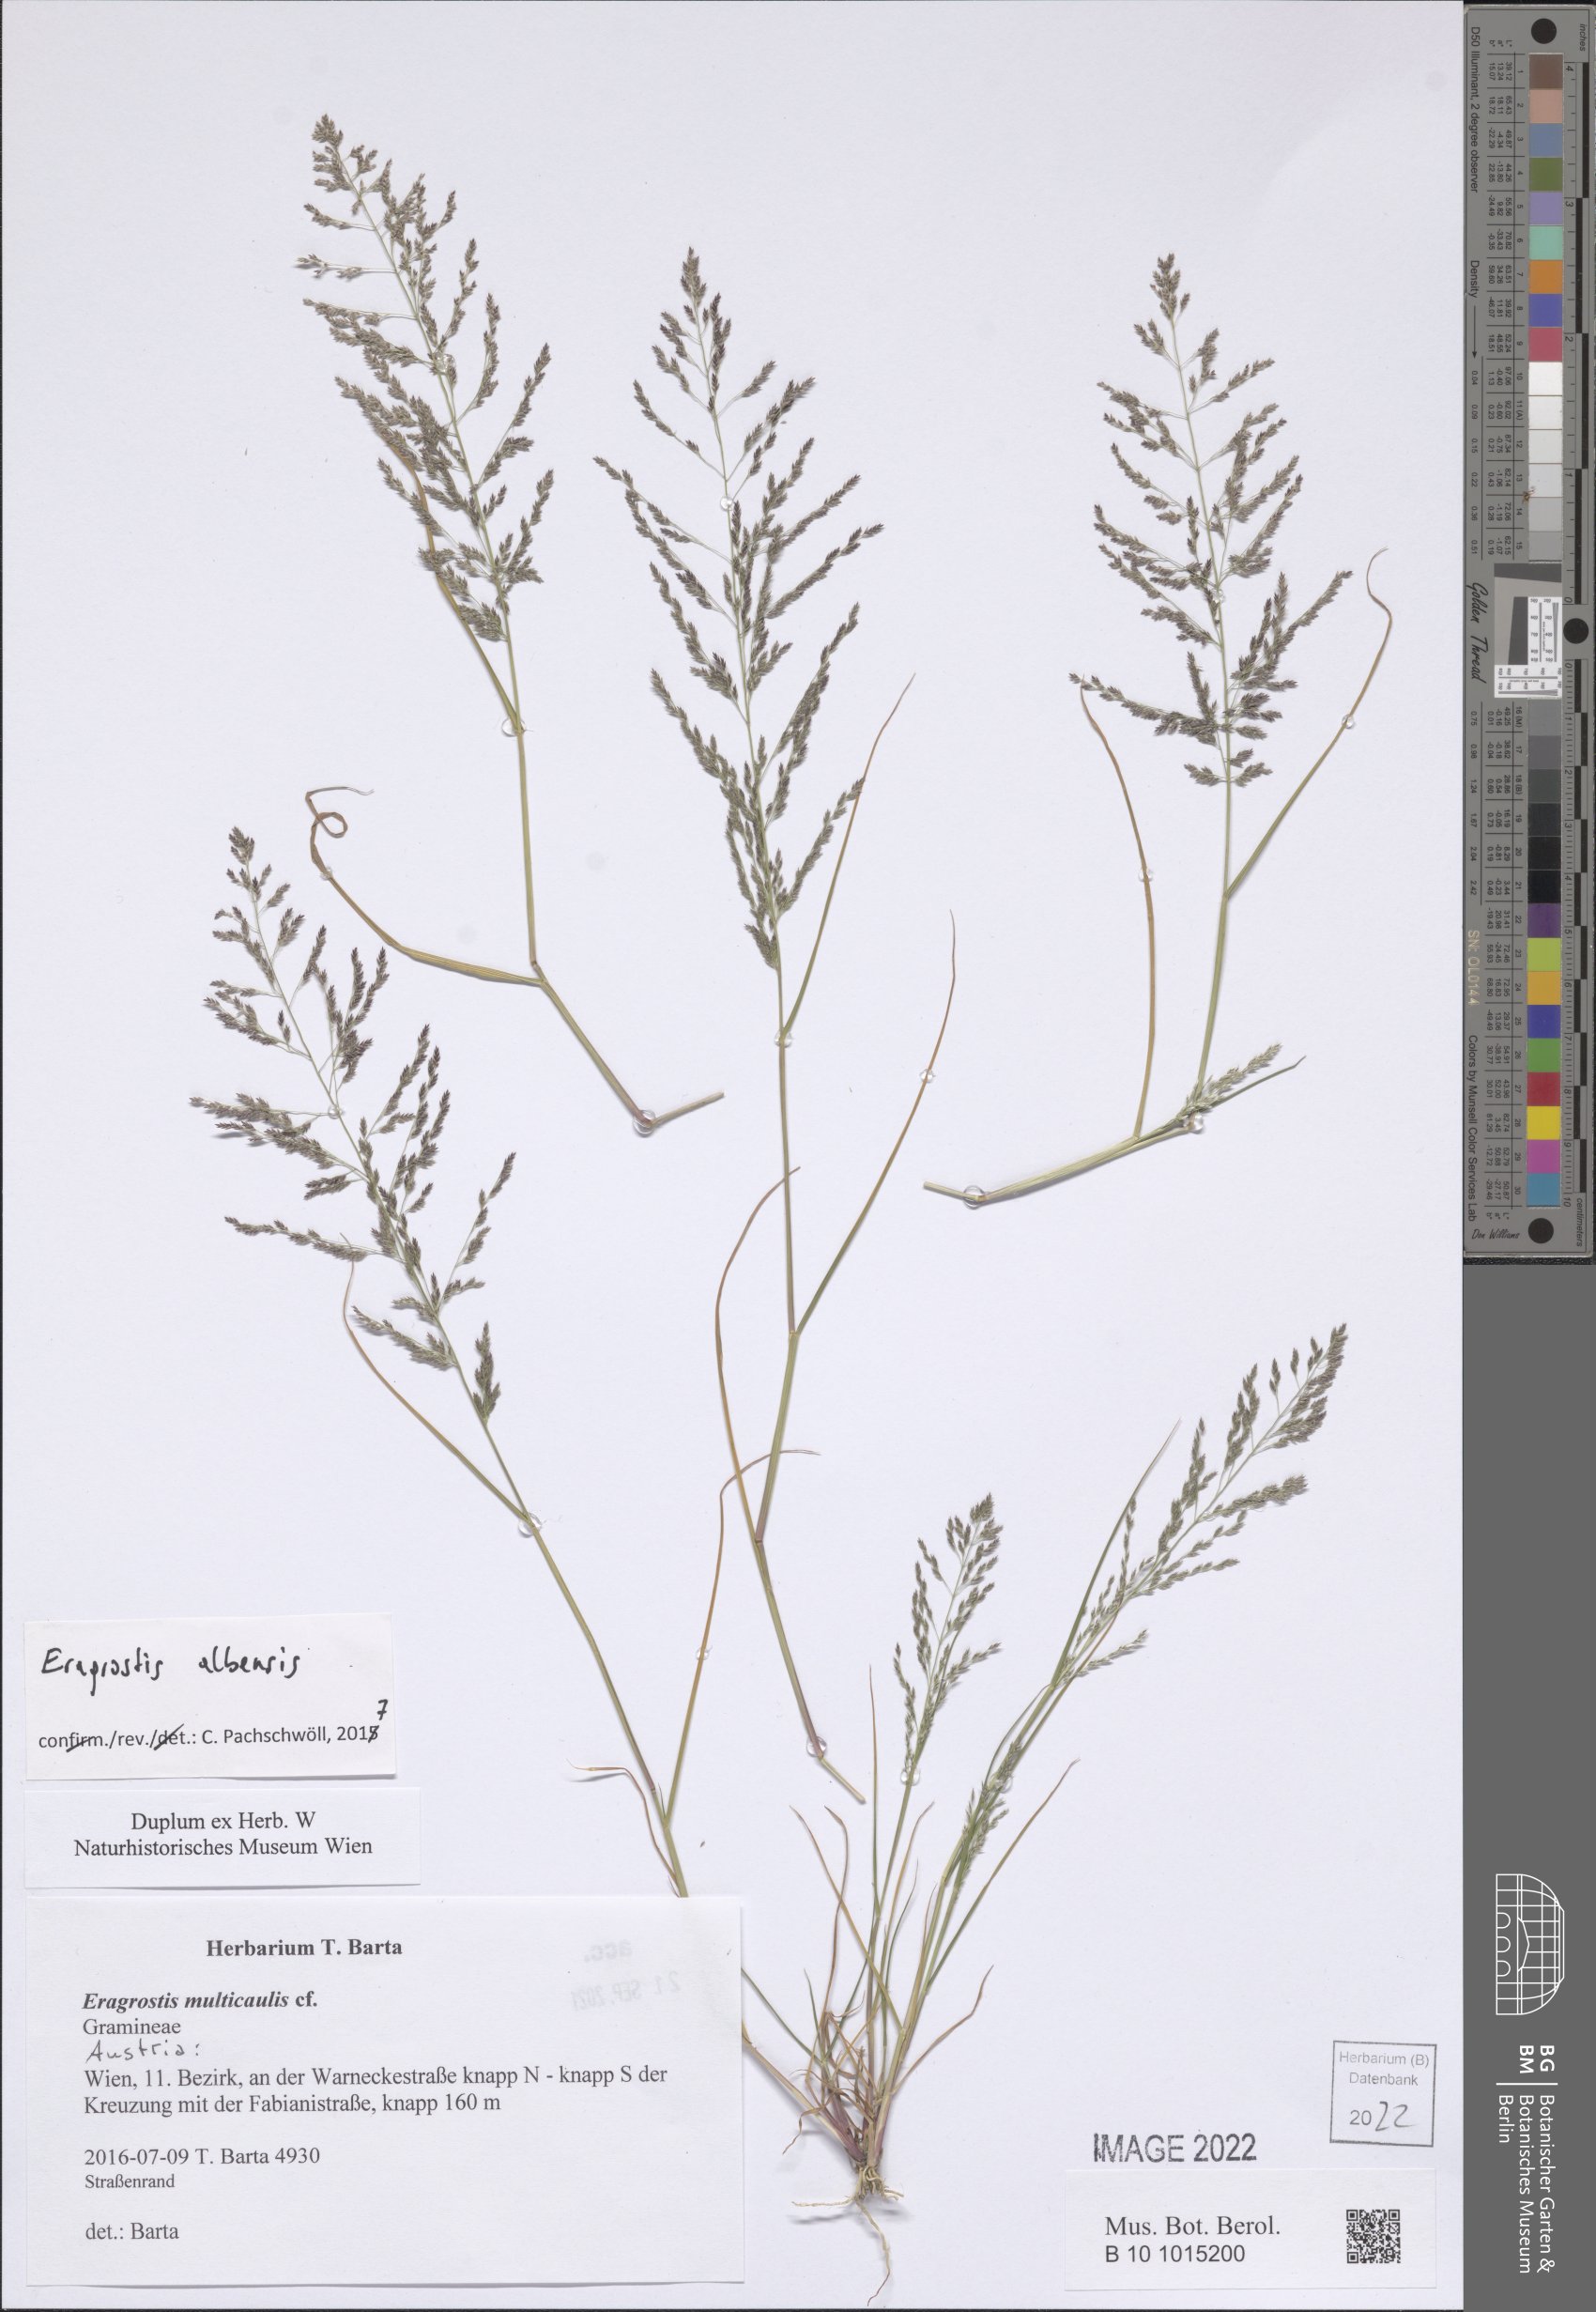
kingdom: Plantae
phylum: Tracheophyta
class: Liliopsida
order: Poales
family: Poaceae
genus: Eragrostis
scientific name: Eragrostis pilosa
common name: Indian lovegrass
